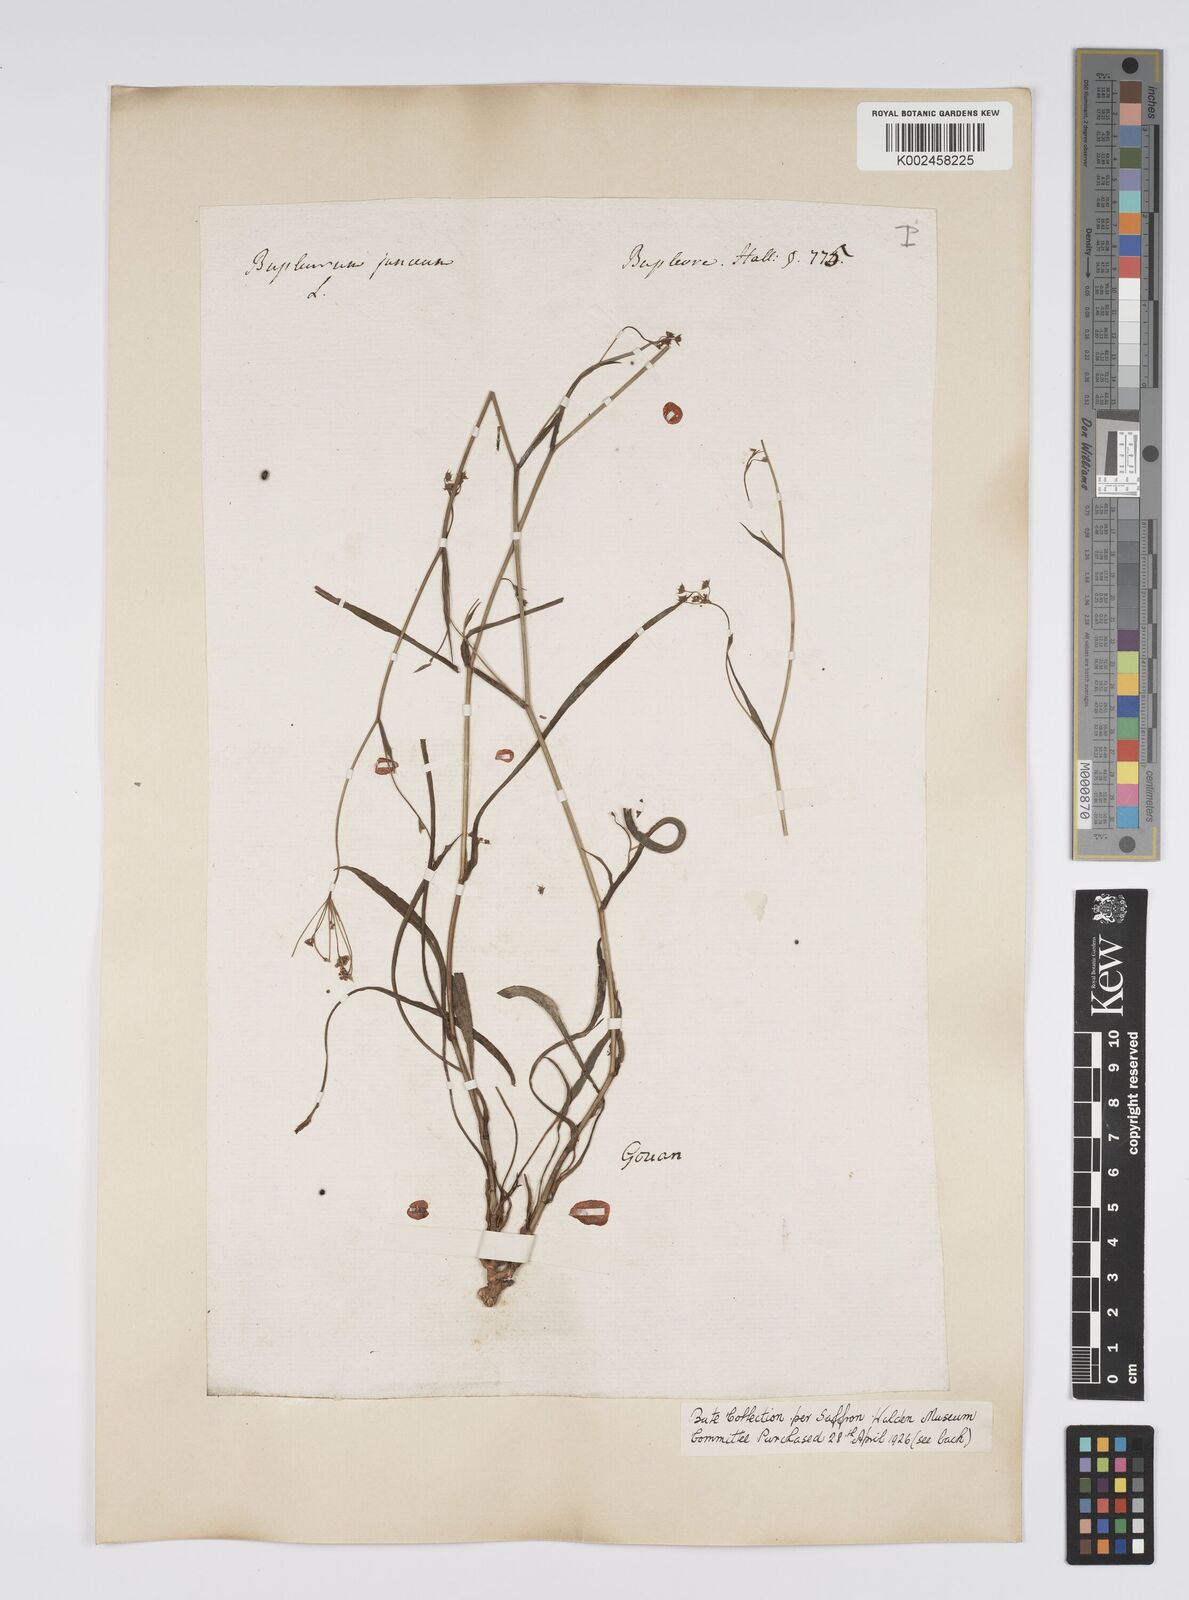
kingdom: Plantae
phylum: Tracheophyta
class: Magnoliopsida
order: Apiales
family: Apiaceae
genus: Bupleurum
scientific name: Bupleurum praealtum
